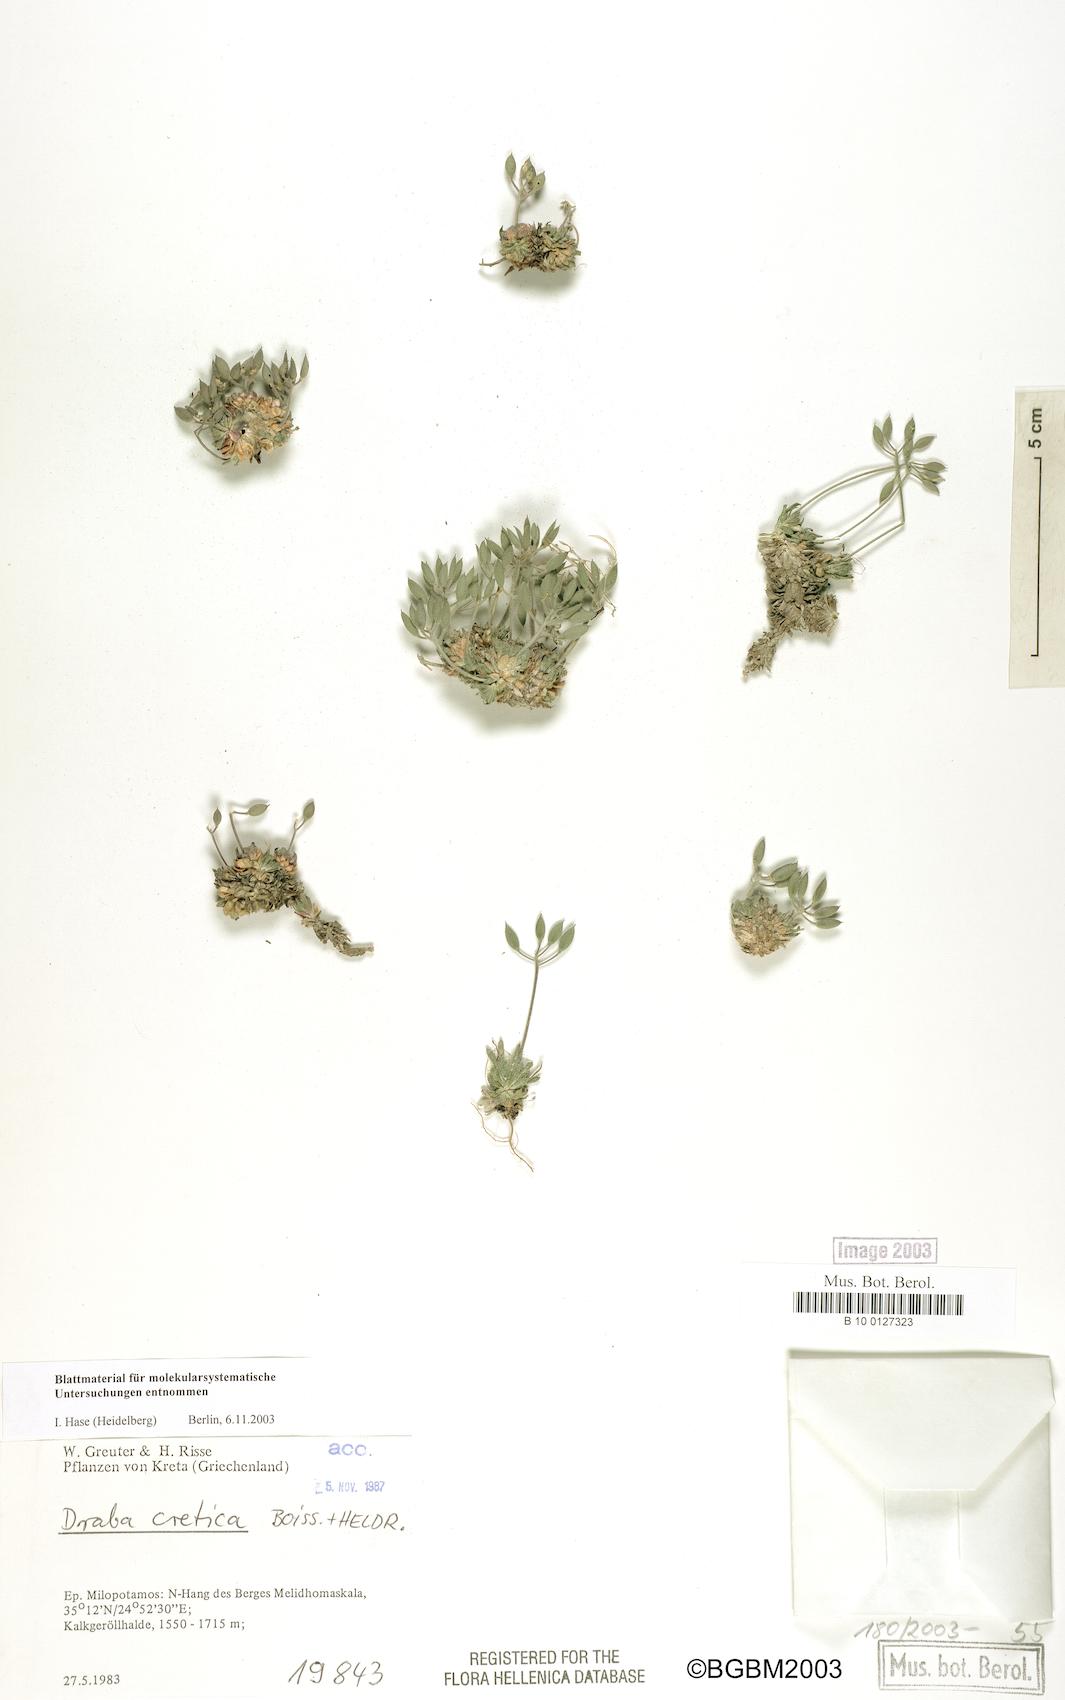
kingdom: Plantae
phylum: Tracheophyta
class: Magnoliopsida
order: Brassicales
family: Brassicaceae
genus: Draba
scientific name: Draba cretica
